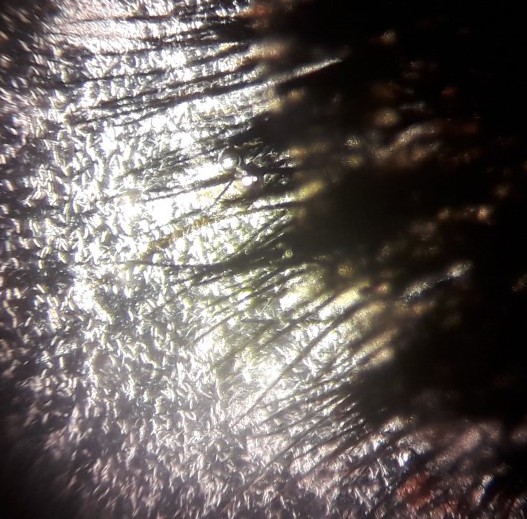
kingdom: Fungi
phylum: Ascomycota
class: Sordariomycetes
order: Chaetosphaeriales
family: Chaetosphaeriaceae
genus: Pseudolachnea
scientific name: Pseudolachnea hispidula
